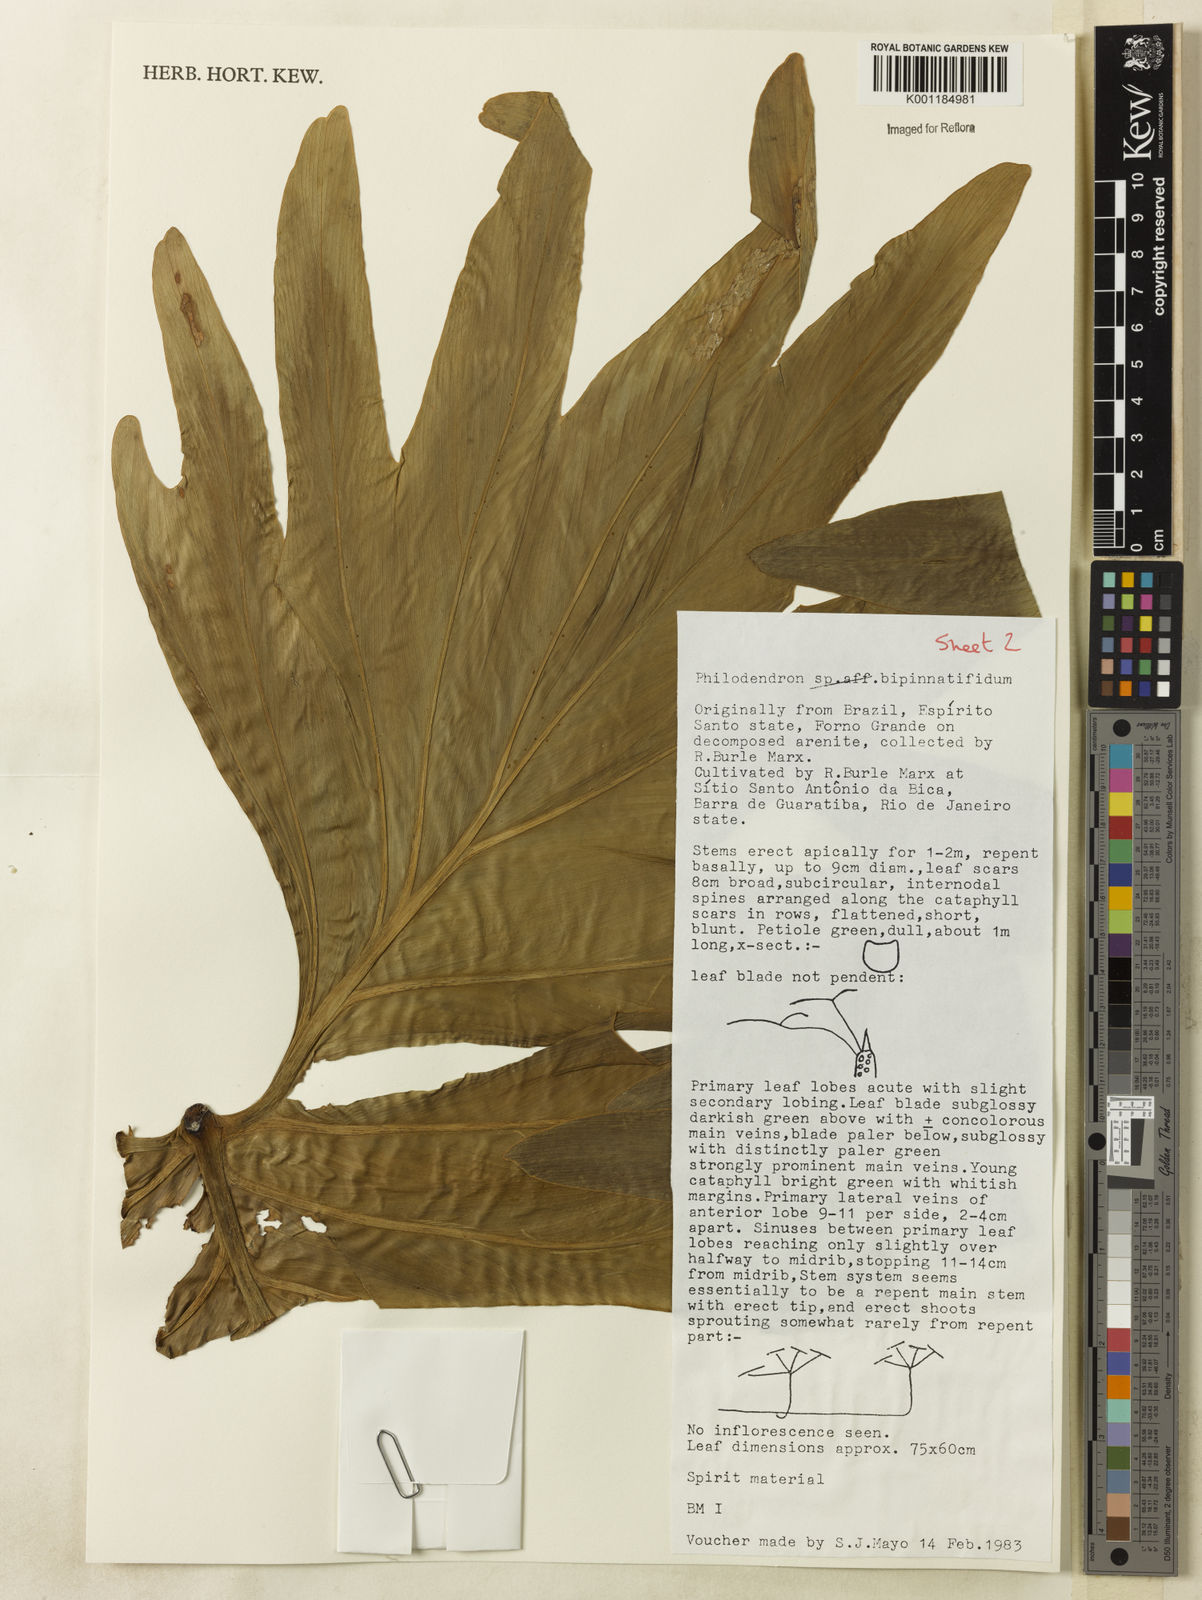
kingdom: Plantae
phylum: Tracheophyta
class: Liliopsida
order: Alismatales
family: Araceae
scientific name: Araceae
